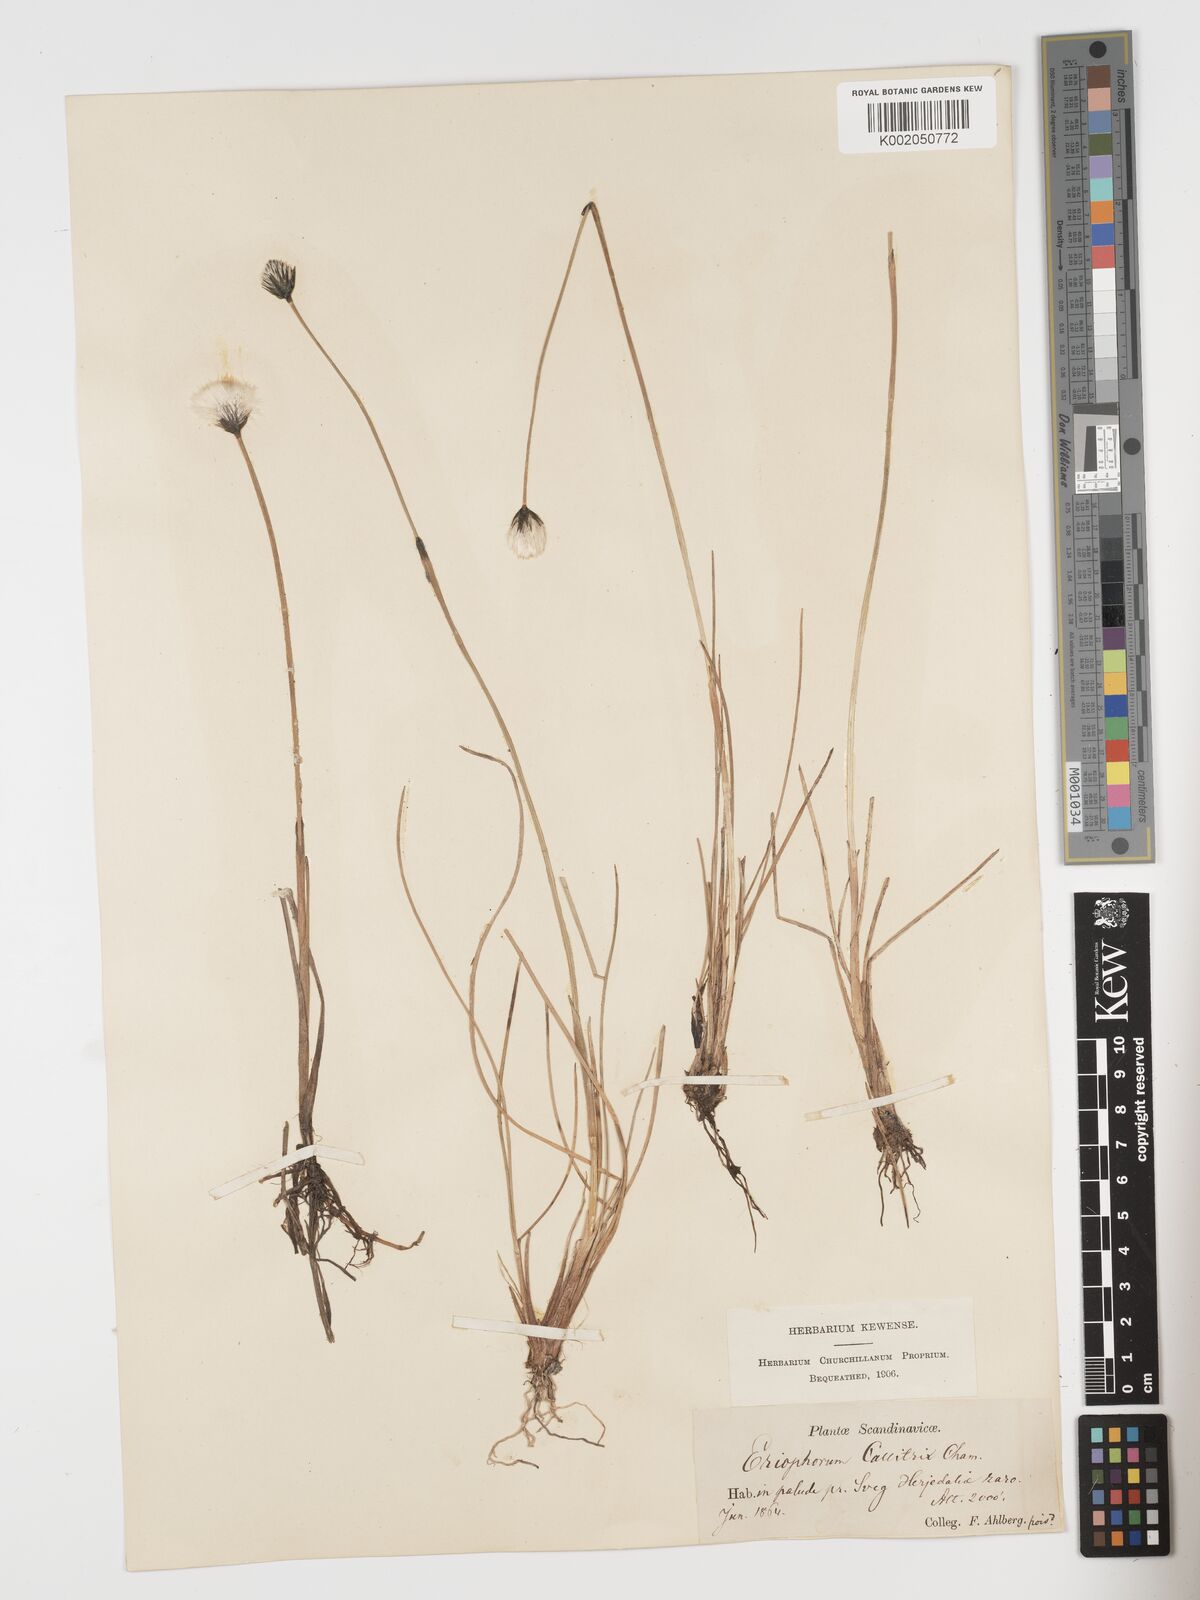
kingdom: Plantae
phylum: Tracheophyta
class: Liliopsida
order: Poales
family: Cyperaceae
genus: Eriophorum
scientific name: Eriophorum brachyantherum
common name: Closed-sheathed cottongrass
